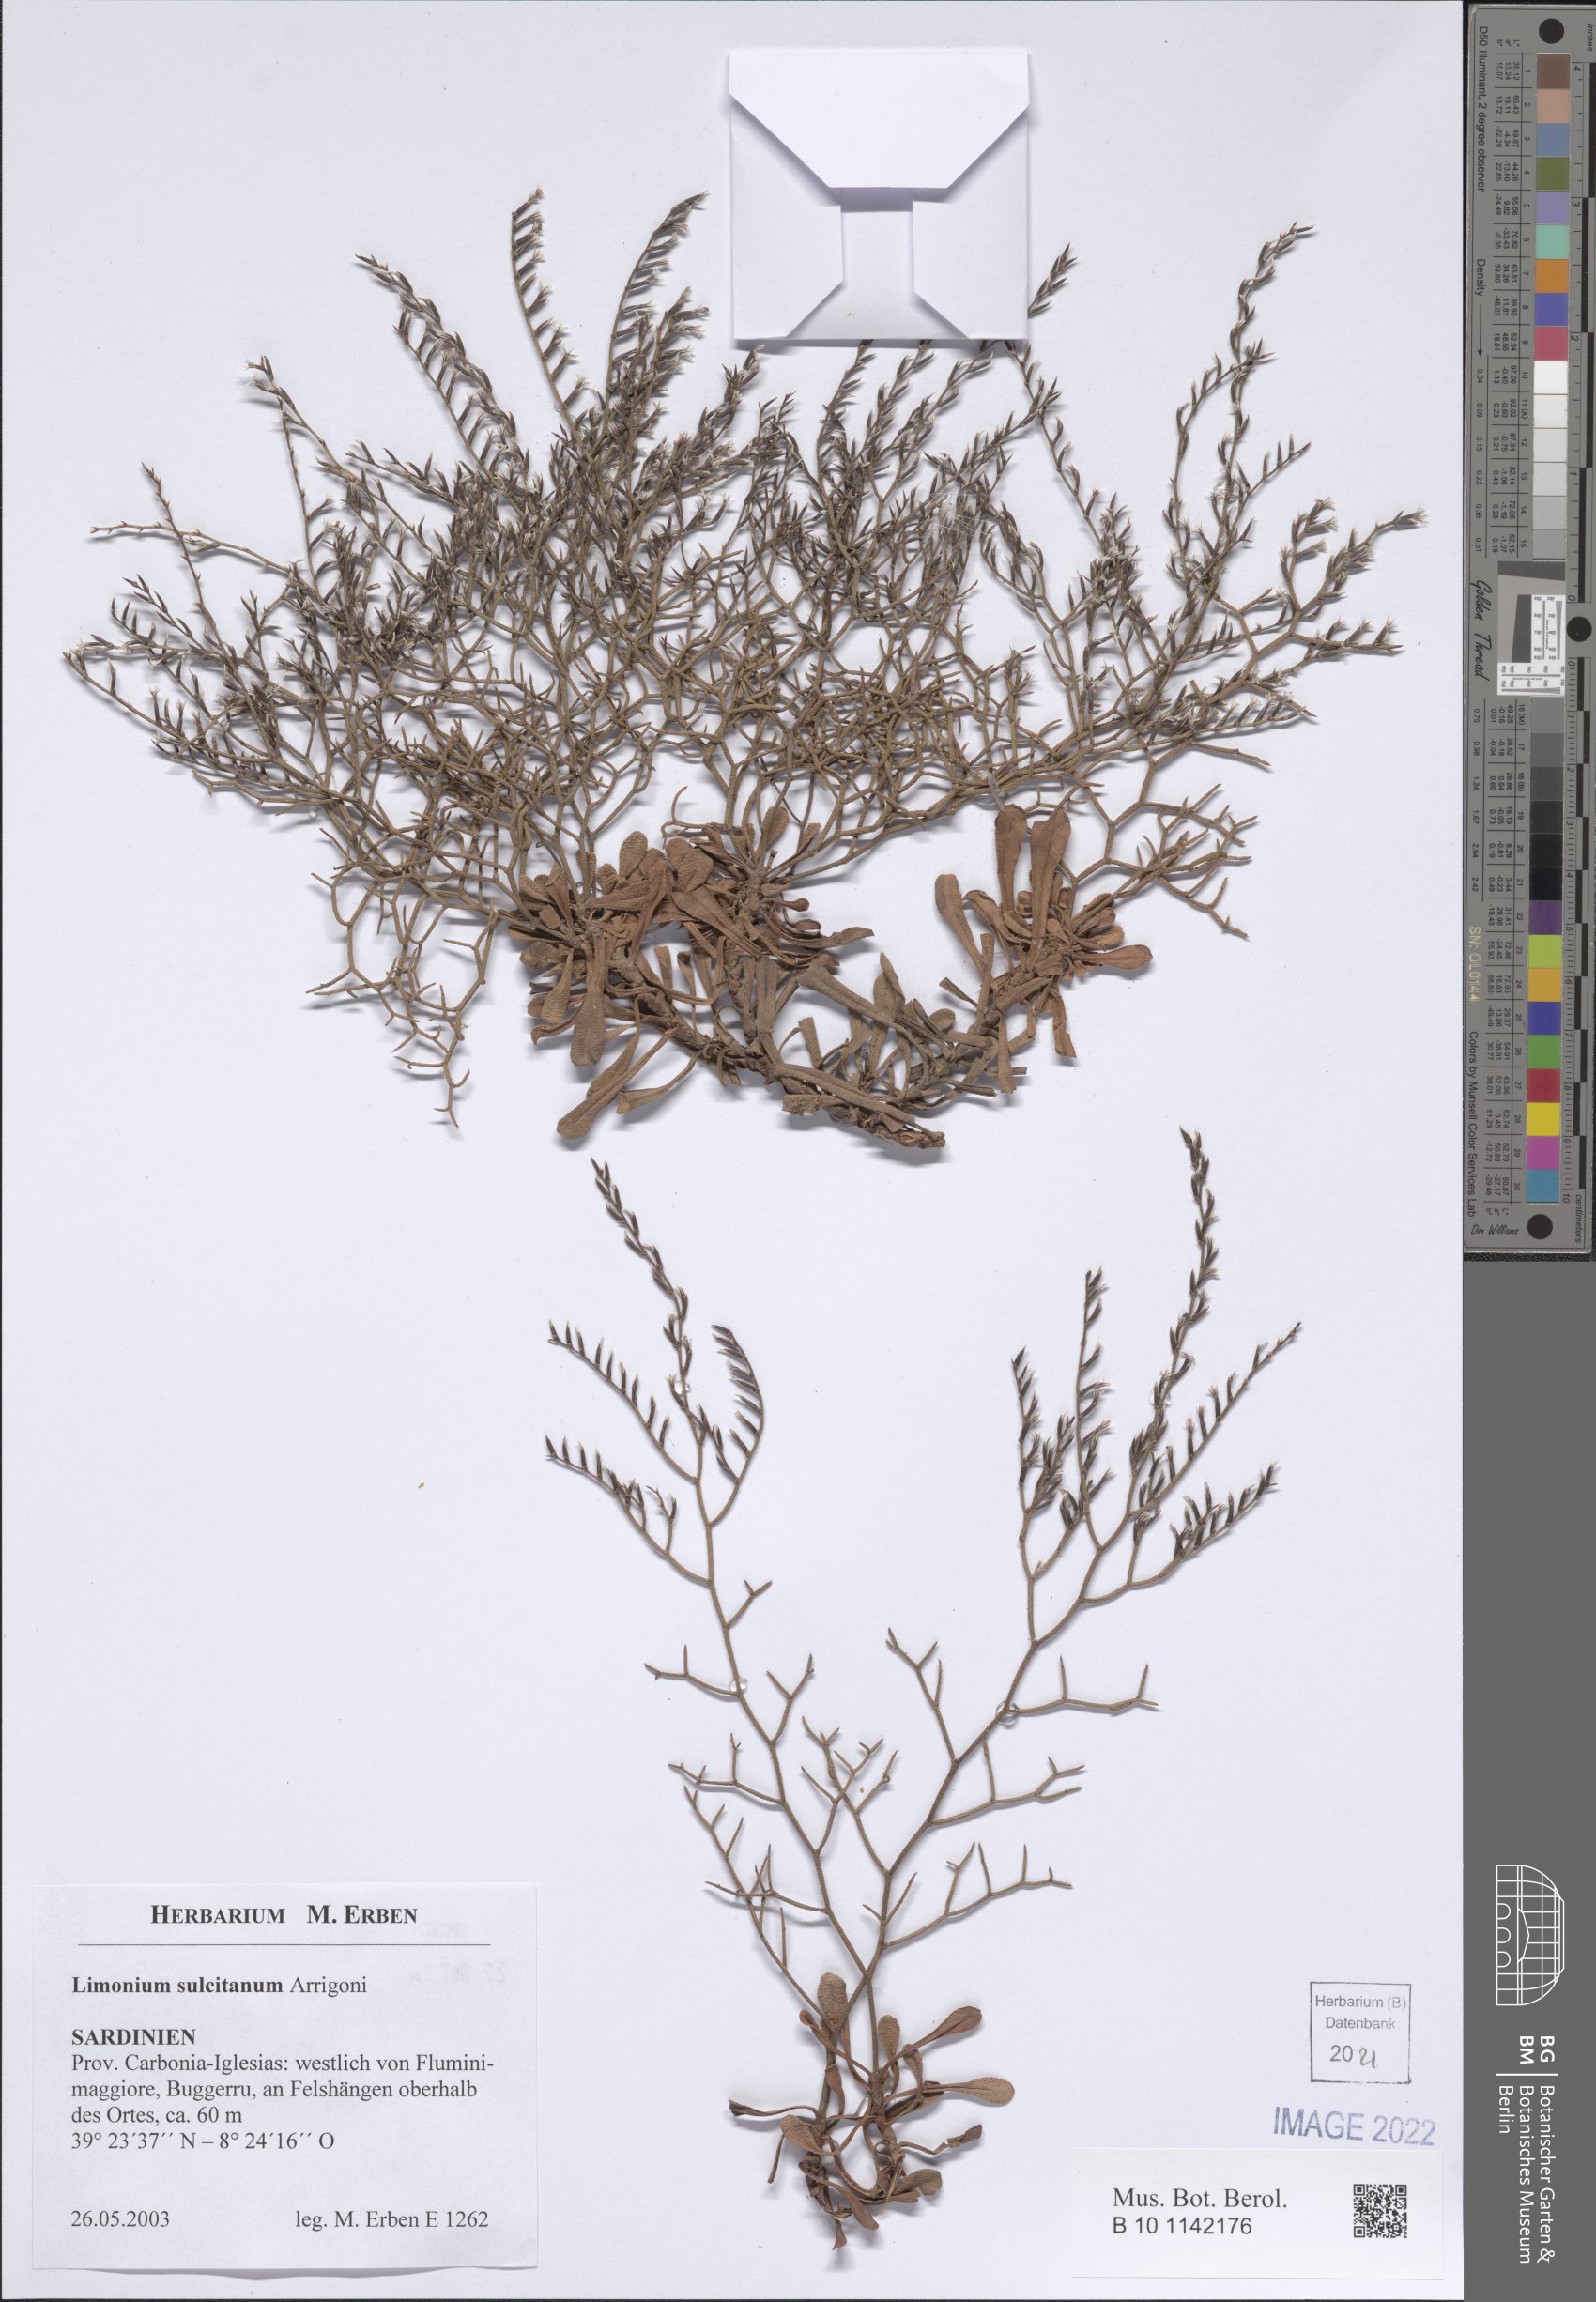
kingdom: Plantae
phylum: Tracheophyta
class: Magnoliopsida
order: Caryophyllales
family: Plumbaginaceae
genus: Limonium
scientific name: Limonium sulcitanum
